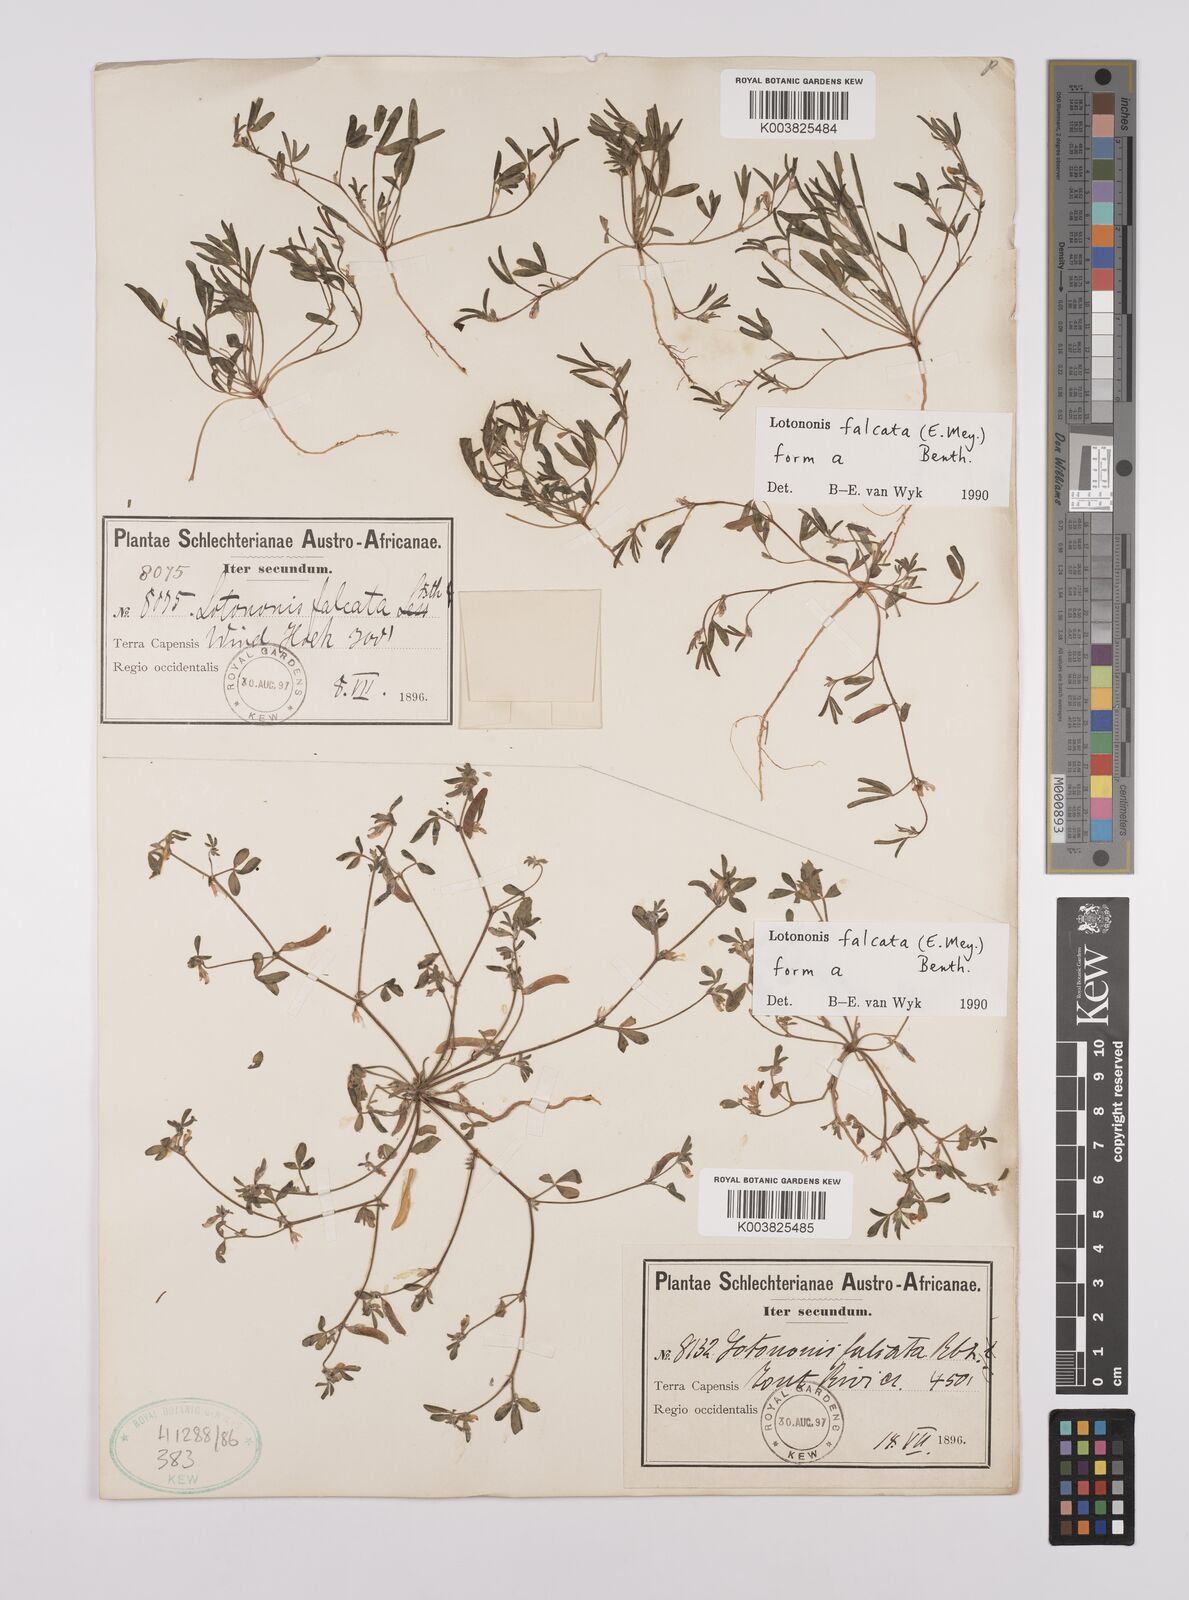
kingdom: Plantae
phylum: Tracheophyta
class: Magnoliopsida
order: Fabales
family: Fabaceae
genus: Lotononis
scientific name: Lotononis falcata
